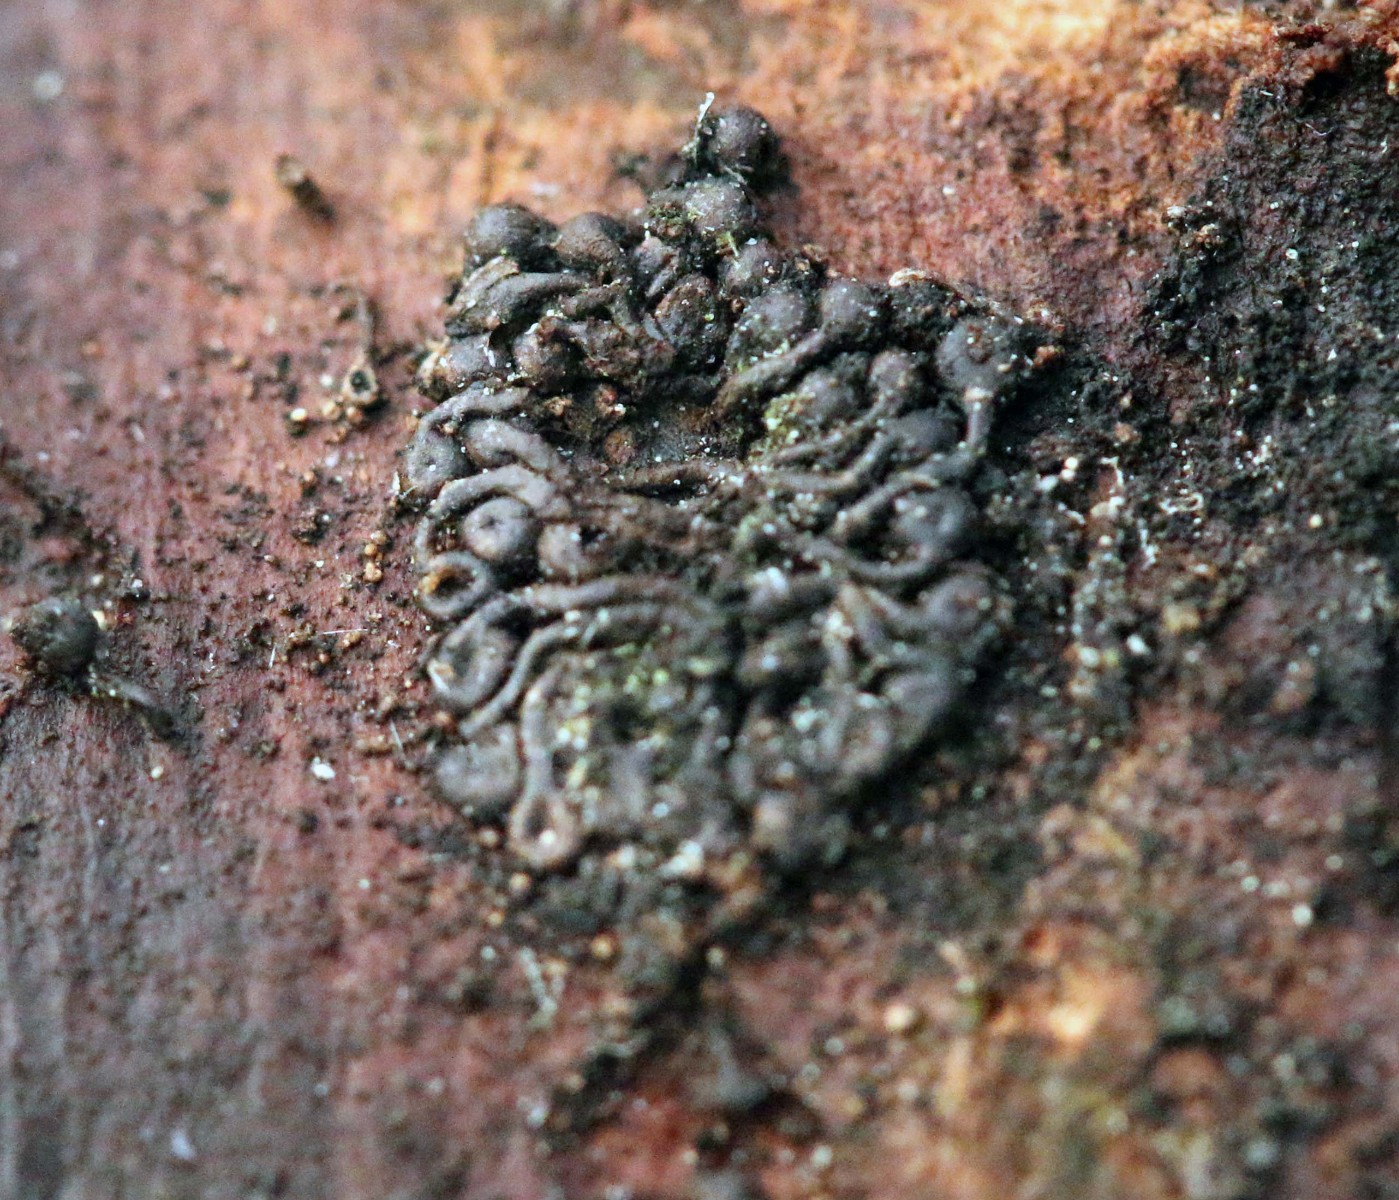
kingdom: Fungi
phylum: Ascomycota
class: Sordariomycetes
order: Calosphaeriales
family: Calosphaeriaceae
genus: Calosphaeria
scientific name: Calosphaeria pulchella
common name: smuk slyngkerne
